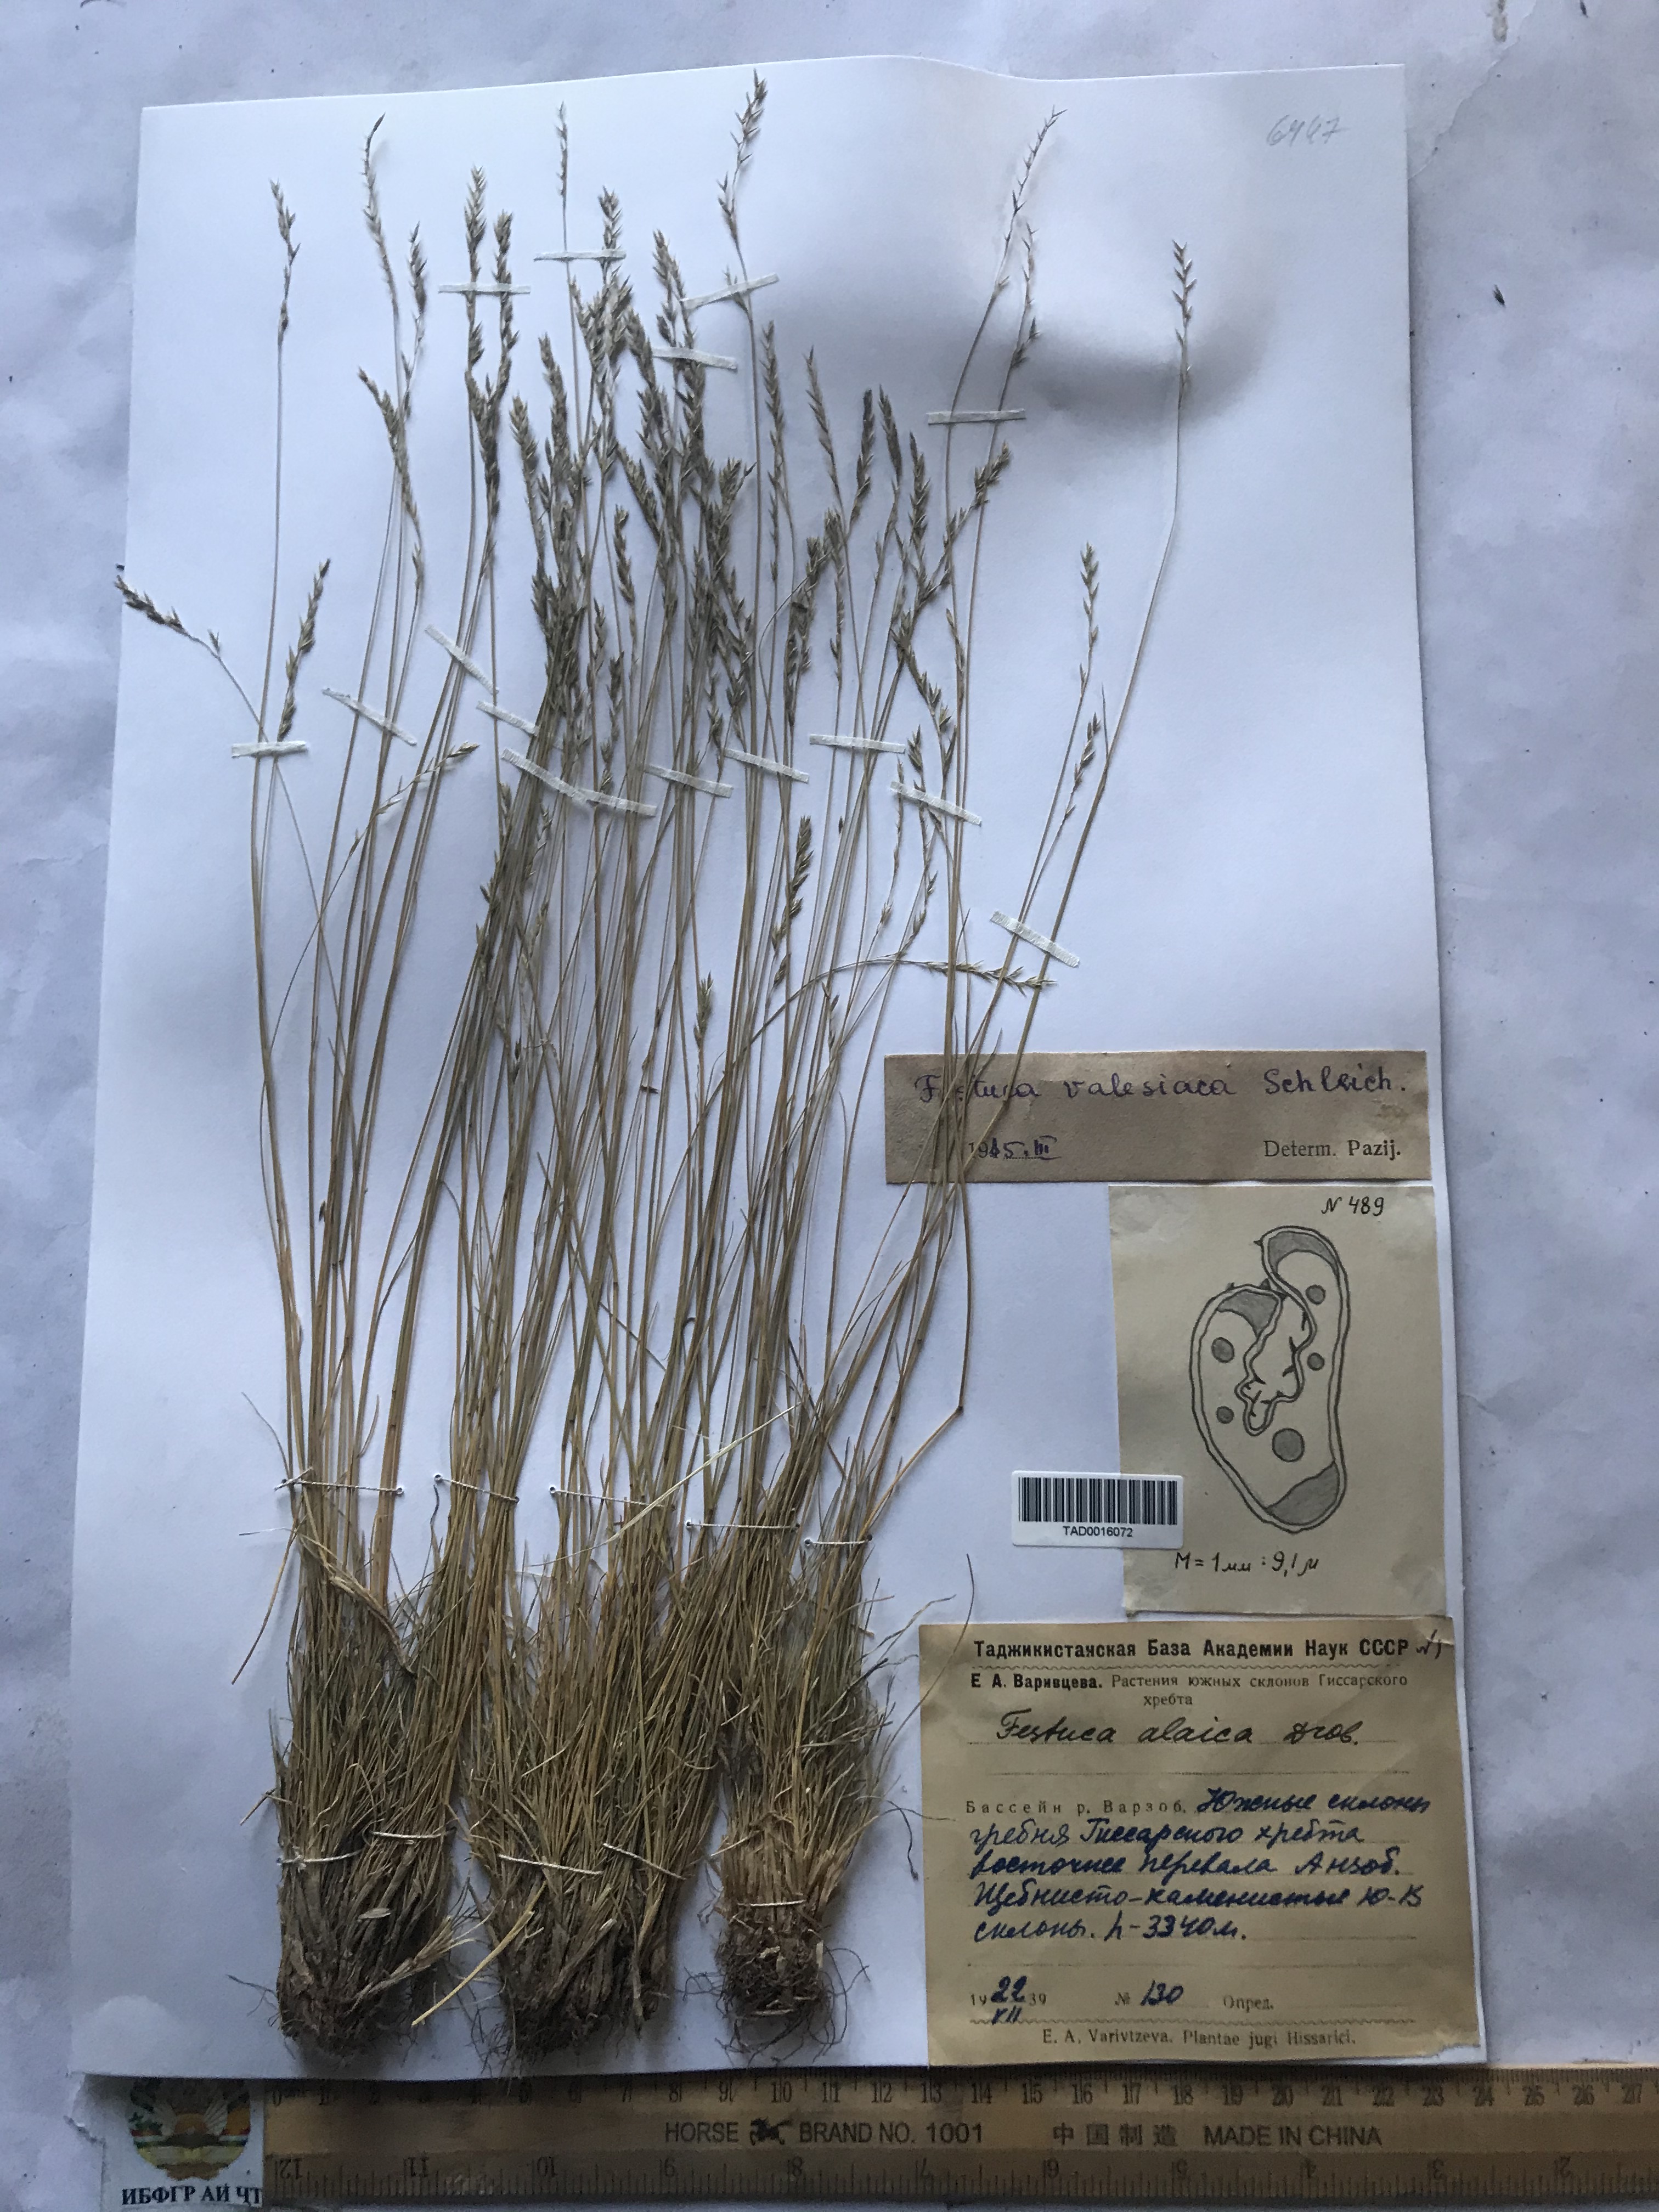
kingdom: Plantae
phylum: Tracheophyta
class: Liliopsida
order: Poales
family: Poaceae
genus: Festuca
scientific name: Festuca valesiaca
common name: Volga fescue
